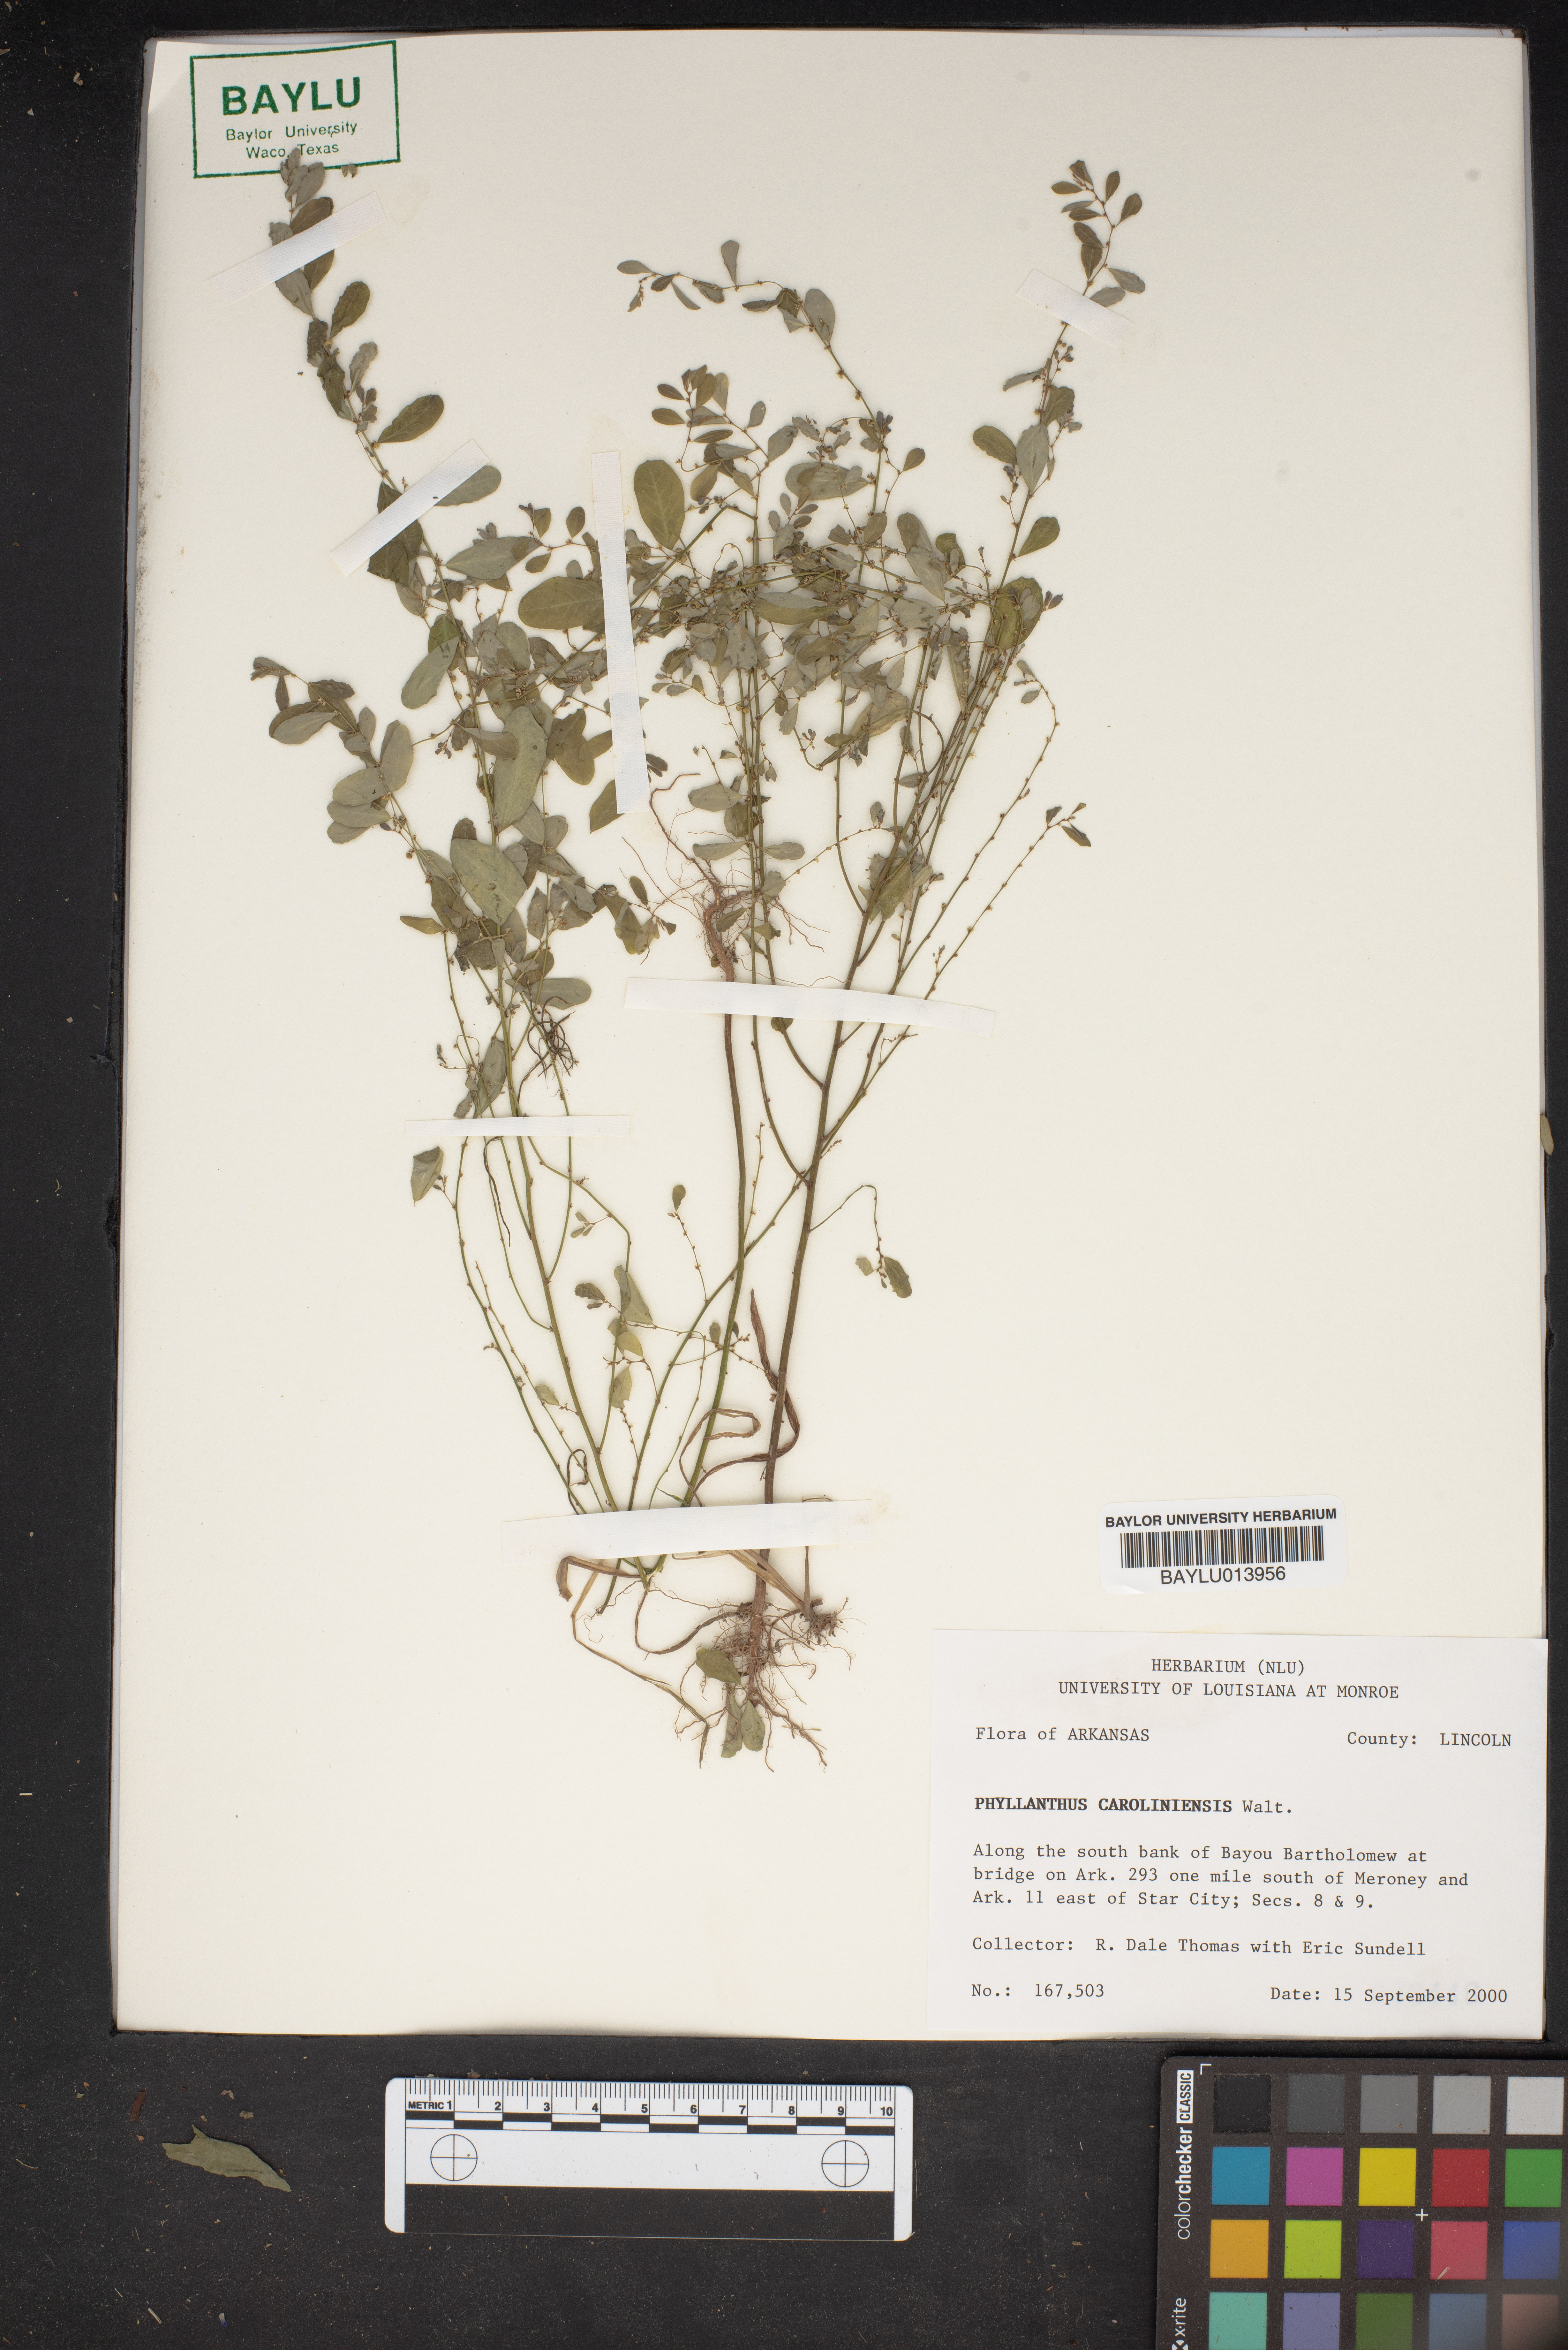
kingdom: Plantae
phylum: Tracheophyta
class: Magnoliopsida
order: Malpighiales
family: Phyllanthaceae
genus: Phyllanthus
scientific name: Phyllanthus carolinensis
